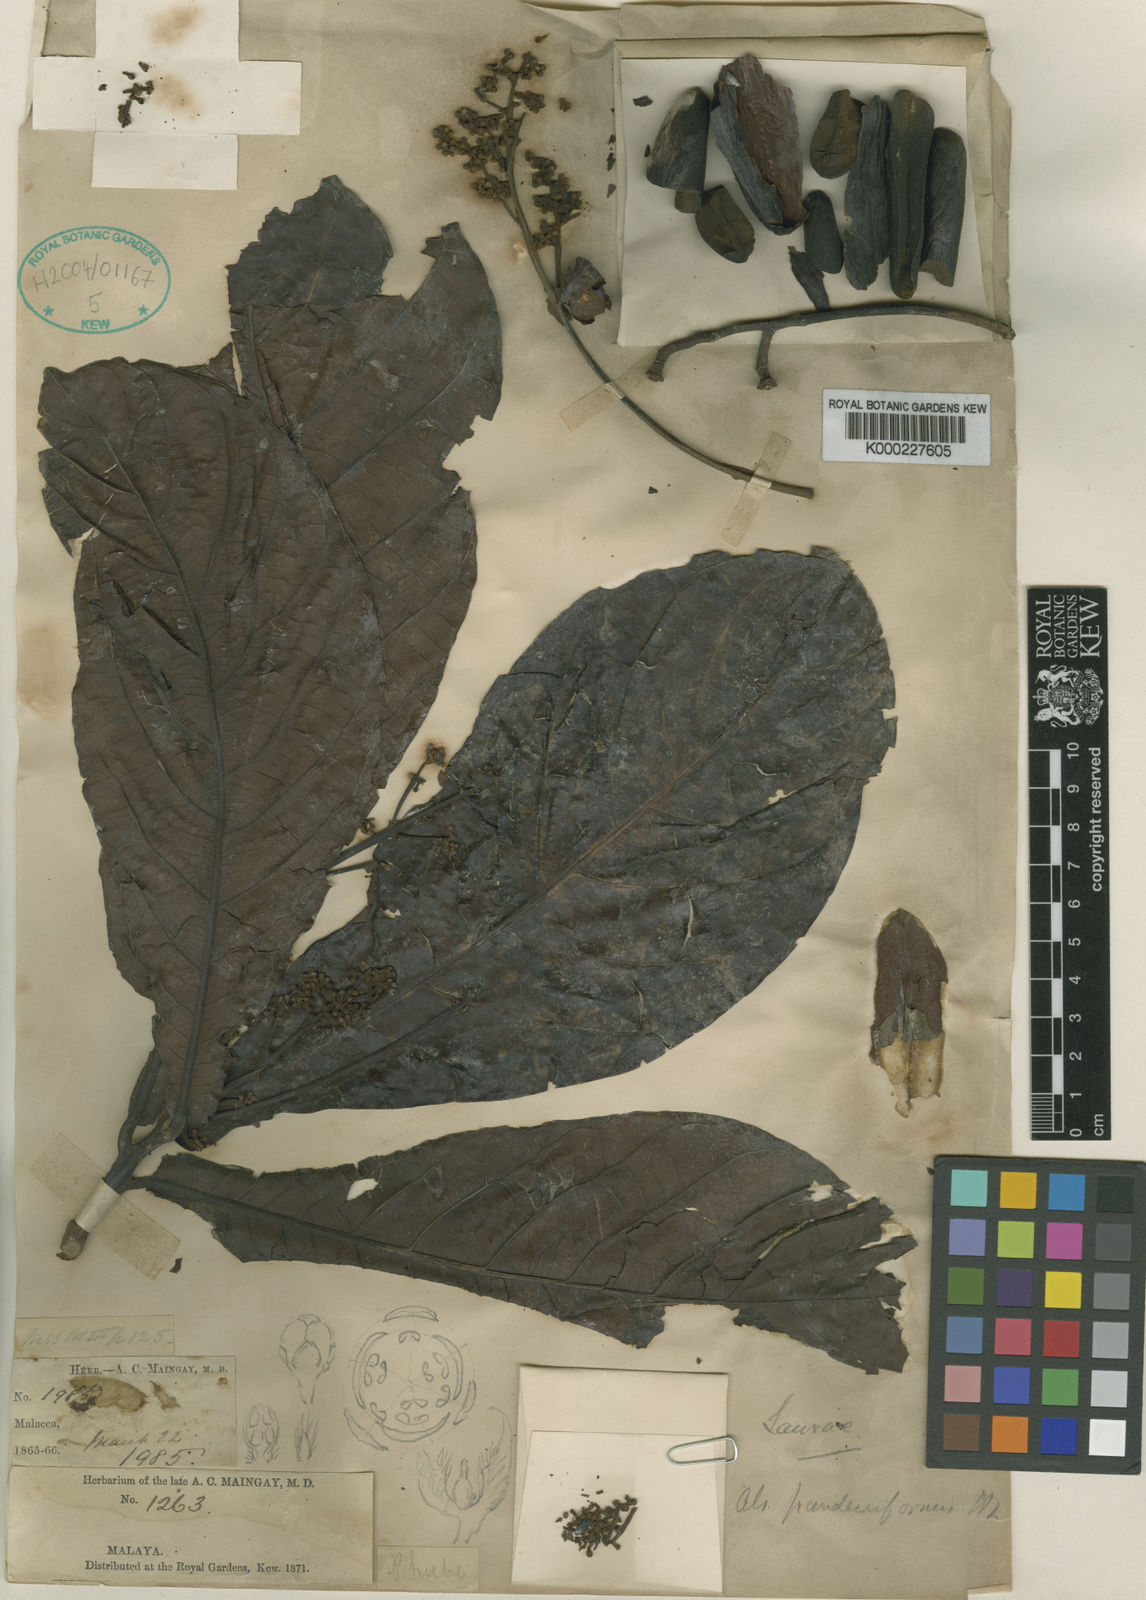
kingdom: Plantae
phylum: Tracheophyta
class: Magnoliopsida
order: Laurales
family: Lauraceae
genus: Alseodaphne
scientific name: Alseodaphne panduriformis
